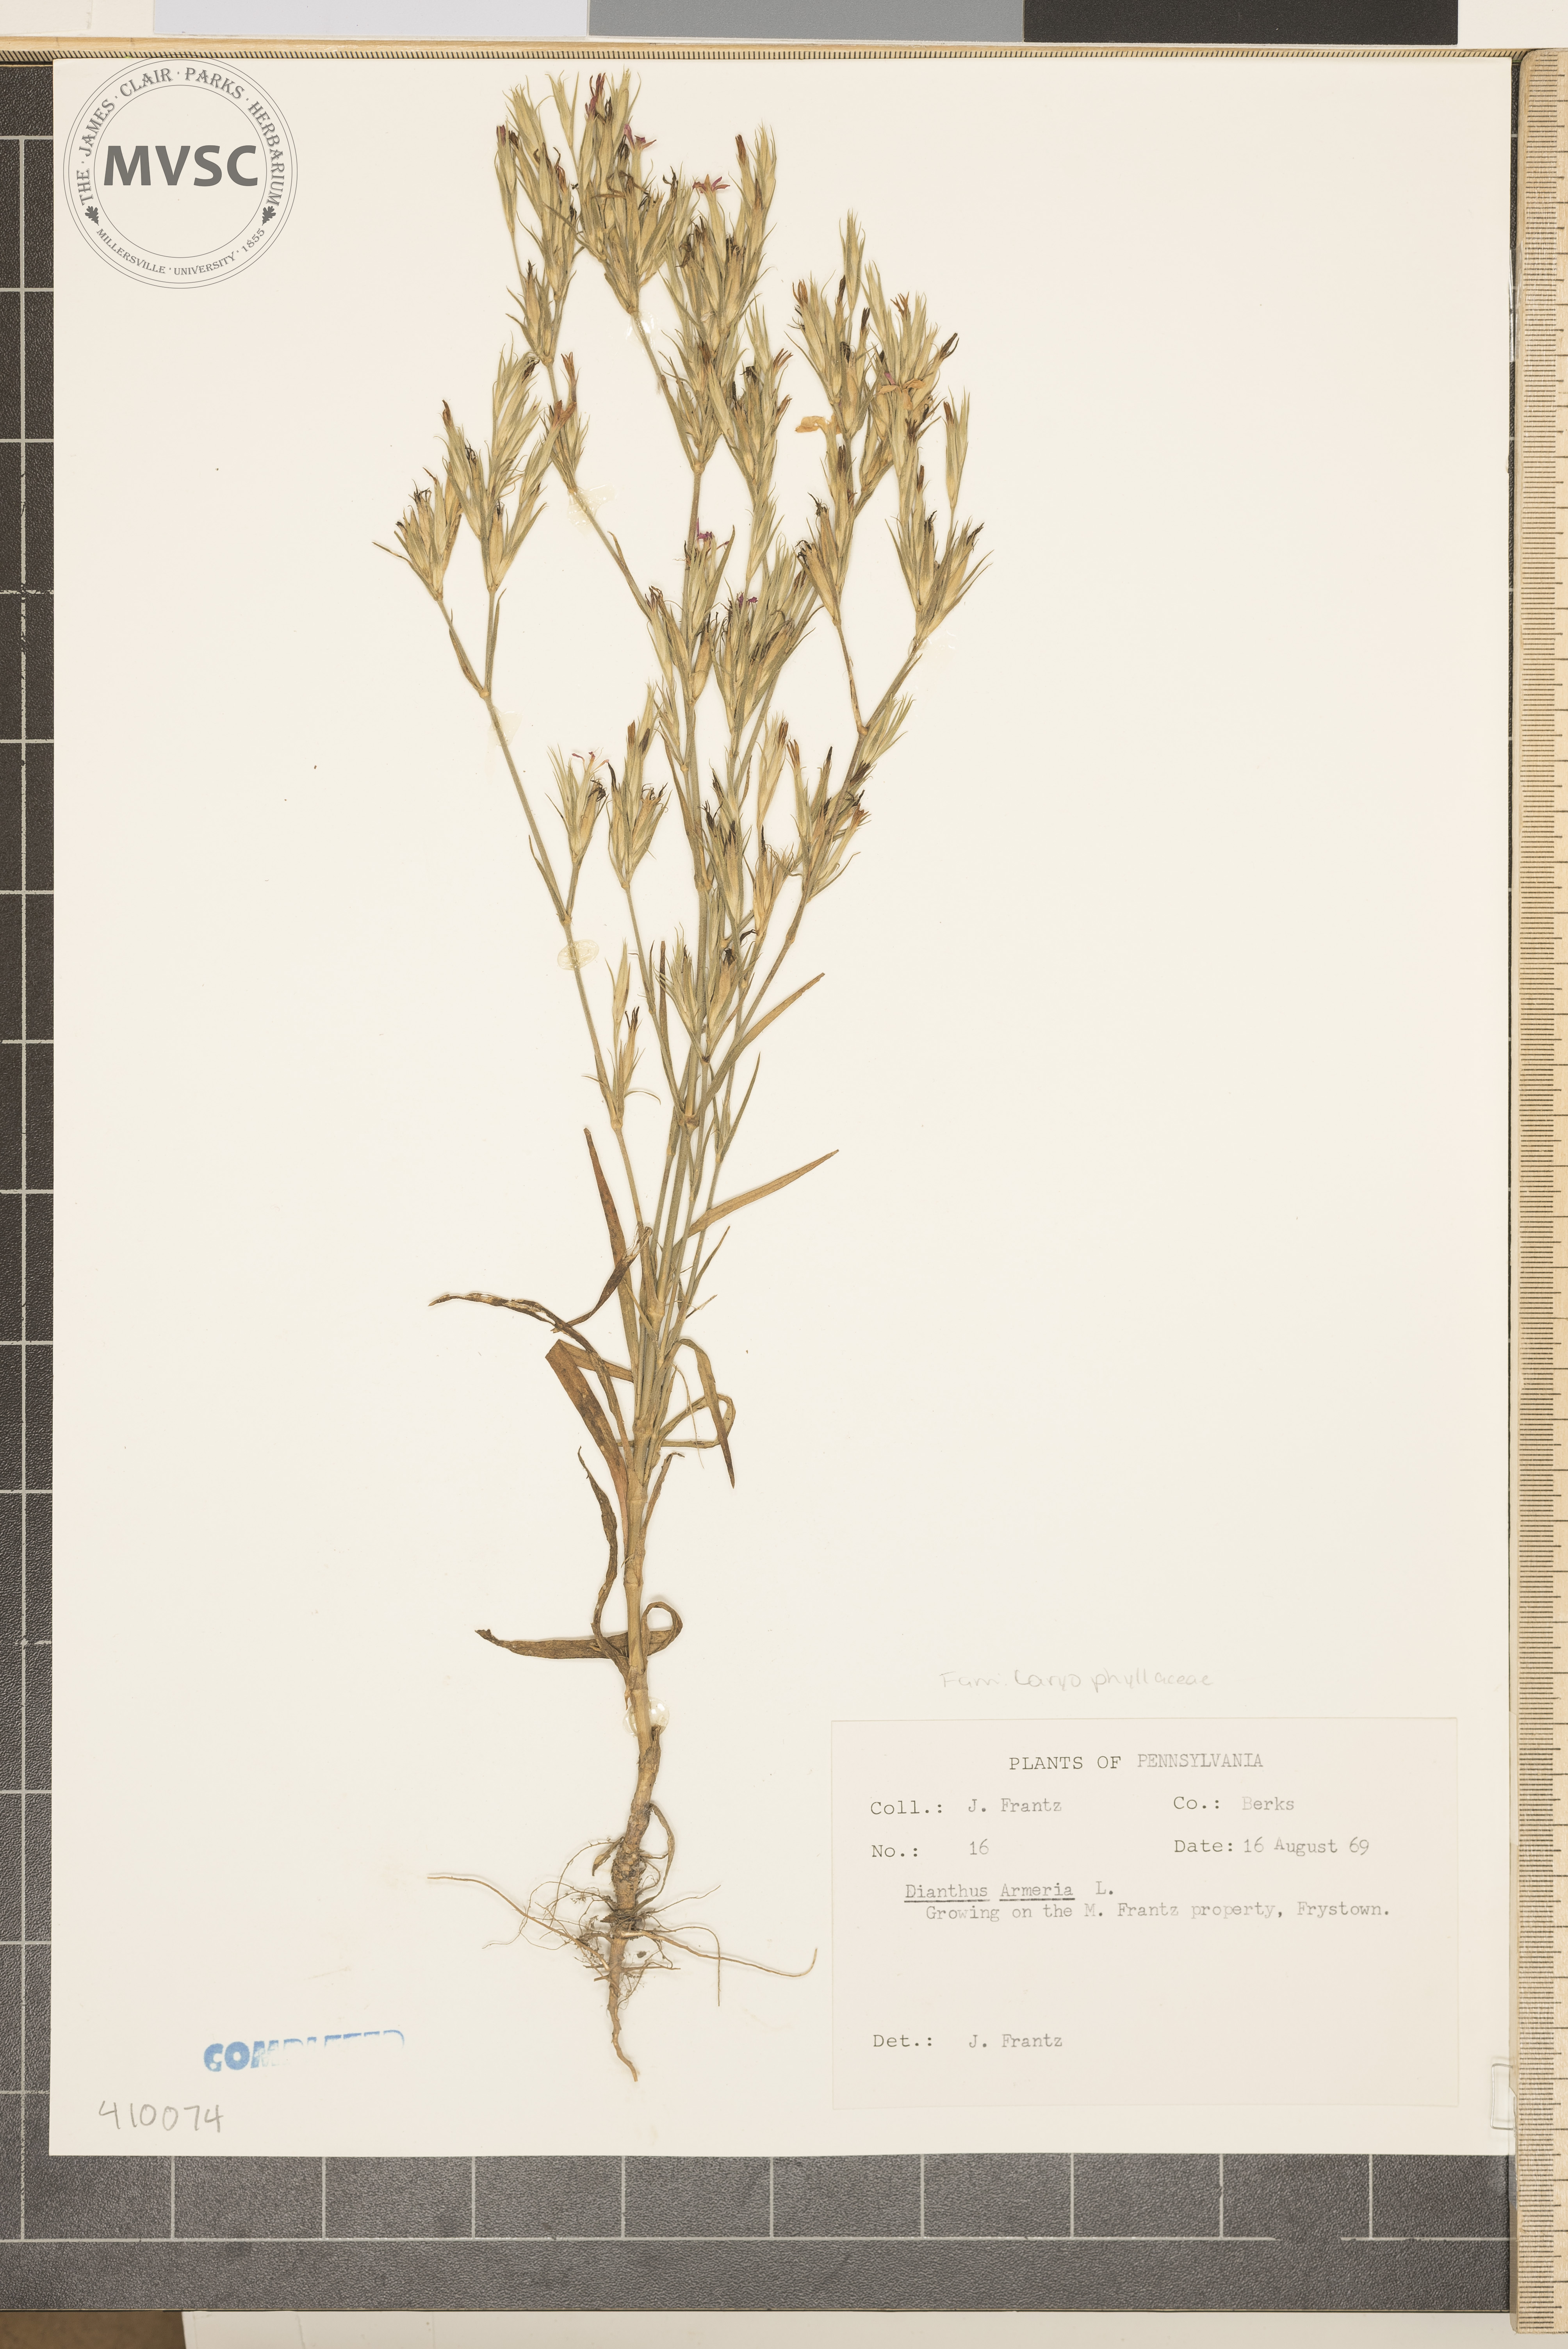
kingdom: Plantae
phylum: Tracheophyta
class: Magnoliopsida
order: Caryophyllales
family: Caryophyllaceae
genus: Dianthus
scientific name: Dianthus armeria
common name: Deptford pink
